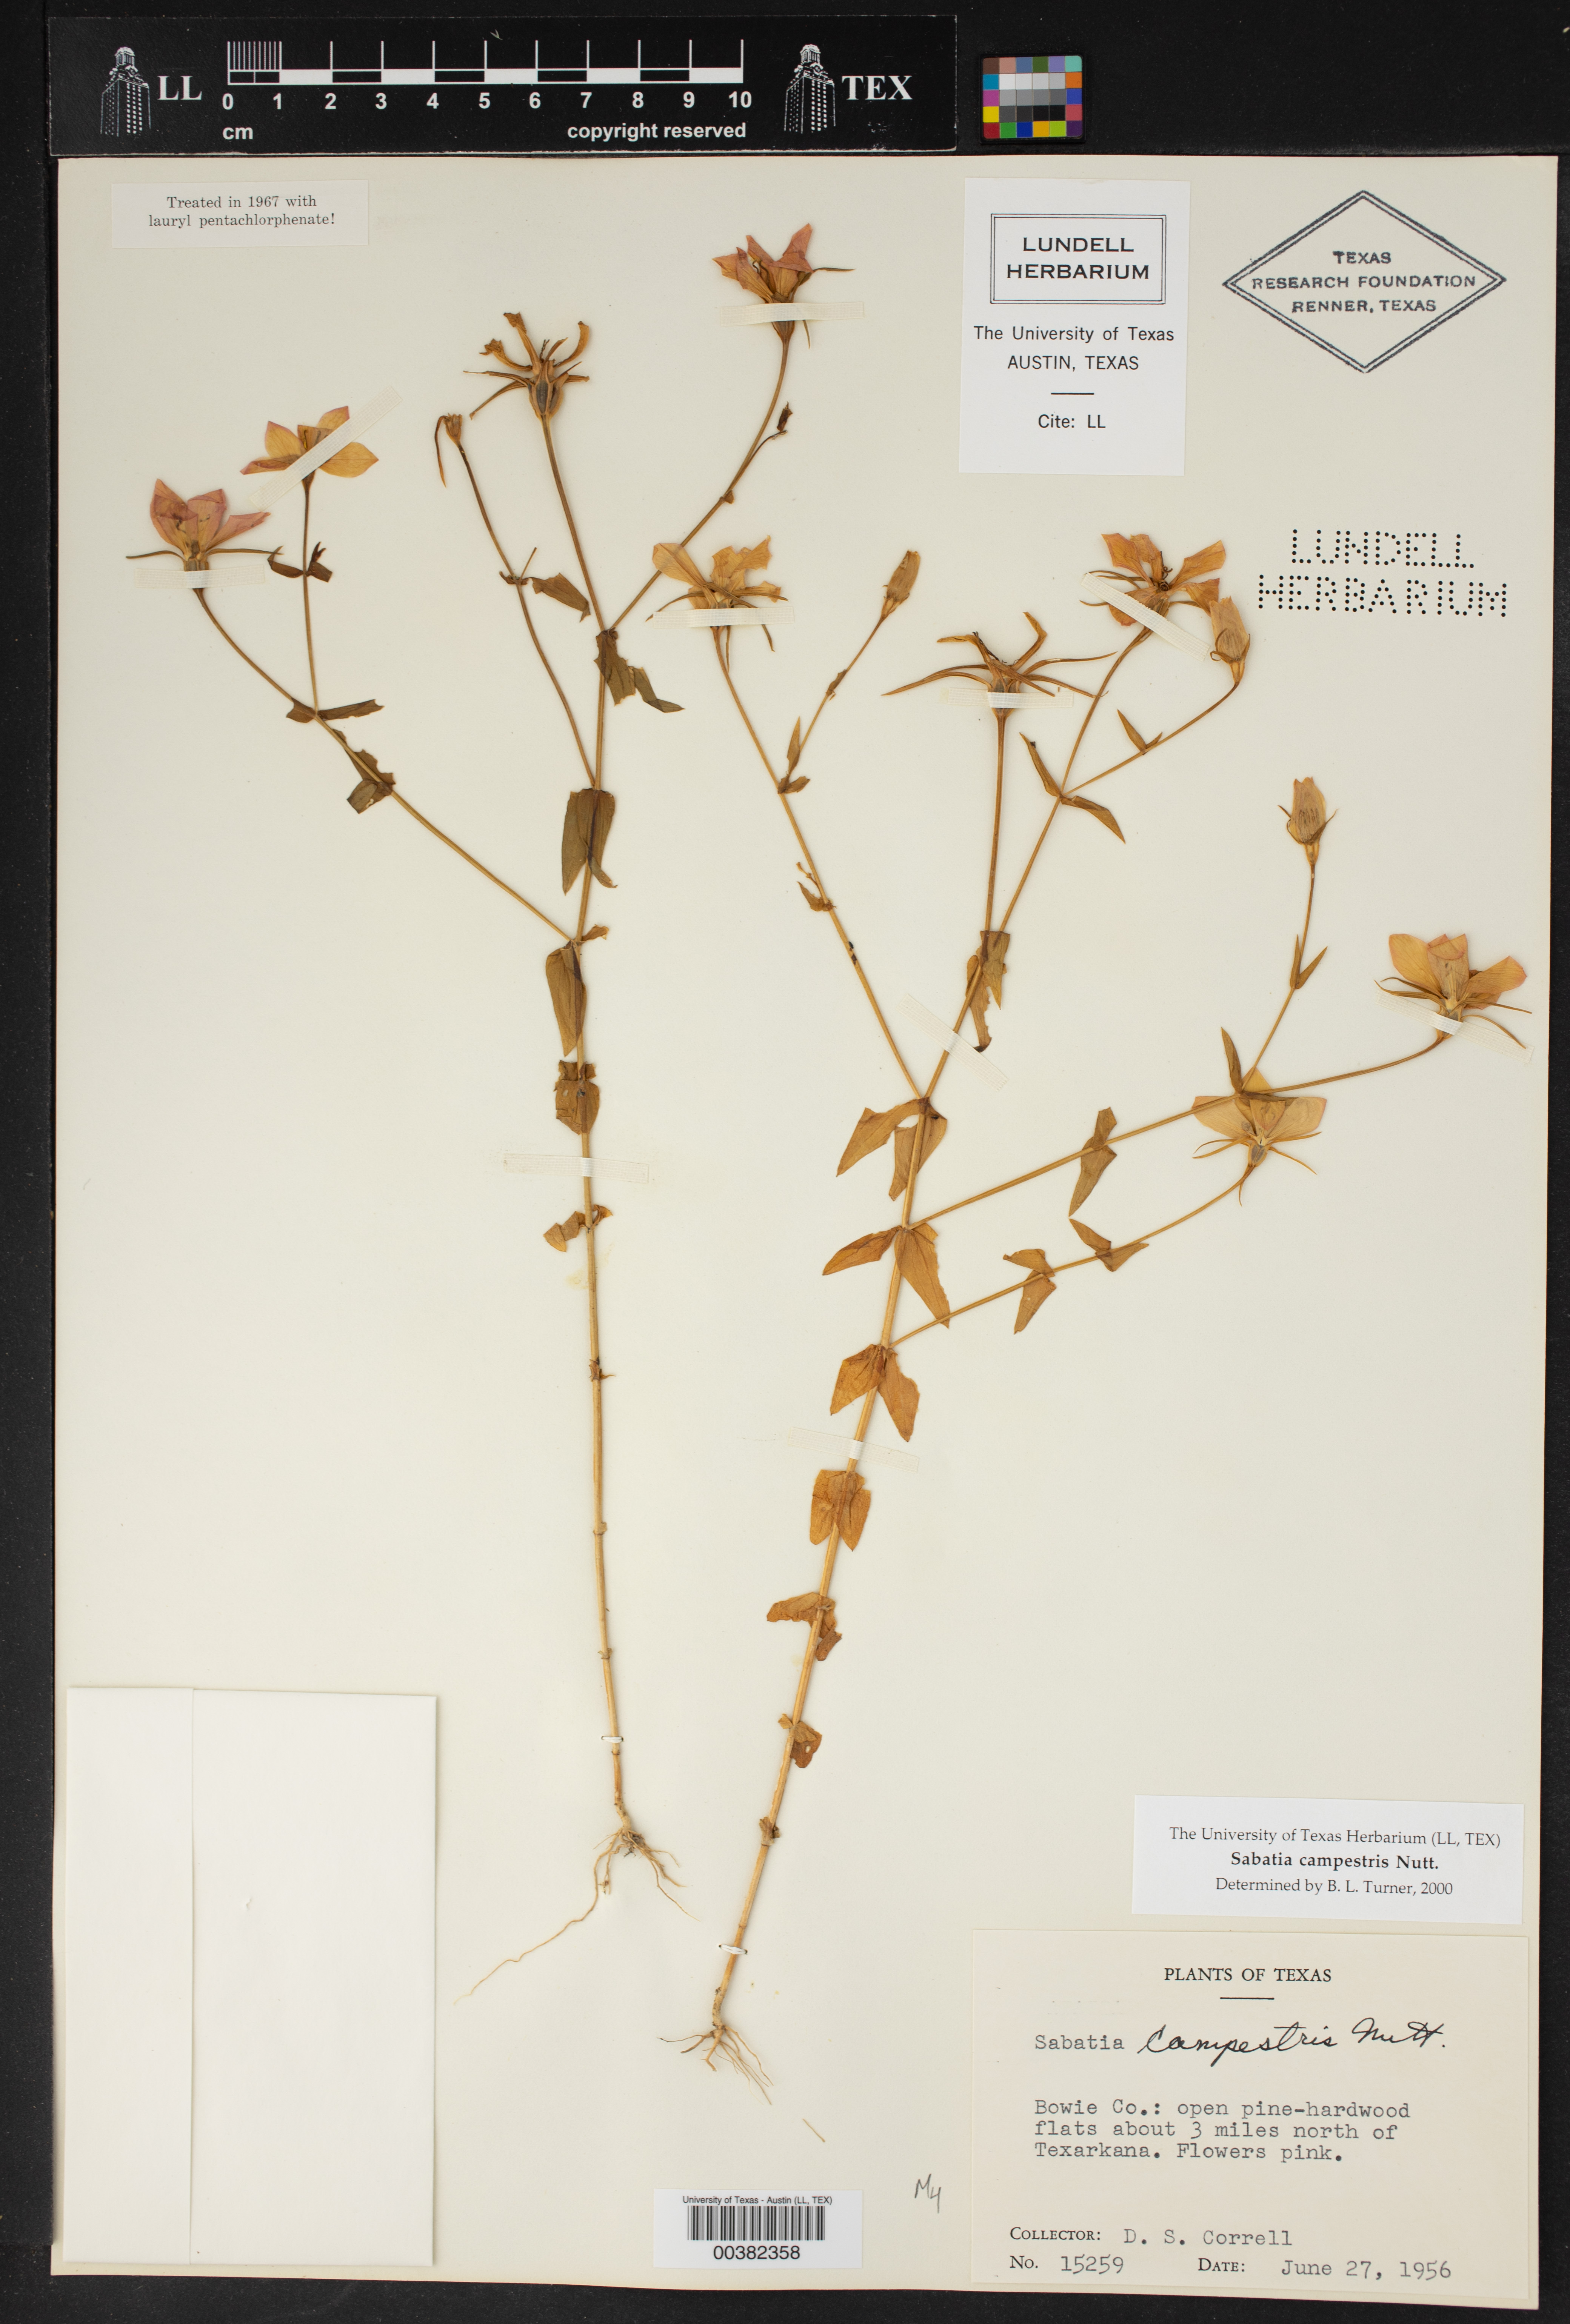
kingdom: Plantae
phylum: Tracheophyta
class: Magnoliopsida
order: Gentianales
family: Gentianaceae
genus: Sabatia
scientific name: Sabatia campestris
